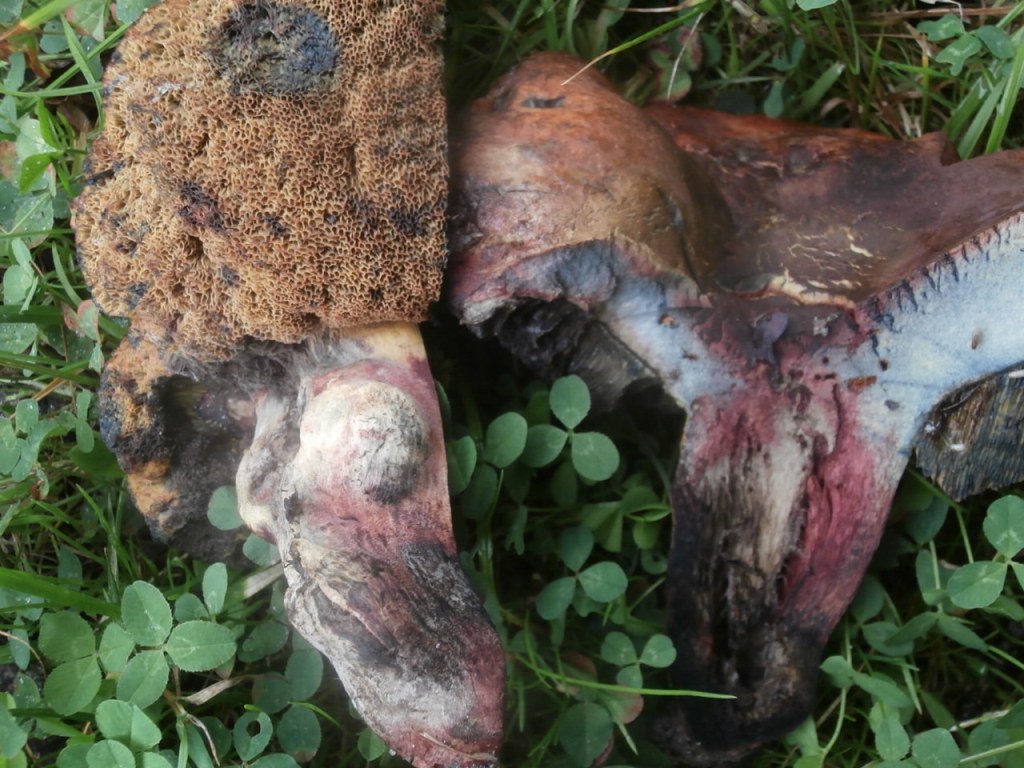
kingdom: Fungi
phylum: Basidiomycota
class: Agaricomycetes
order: Boletales
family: Boletaceae
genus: Suillellus
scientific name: Suillellus queletii
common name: glatstokket indigorørhat
